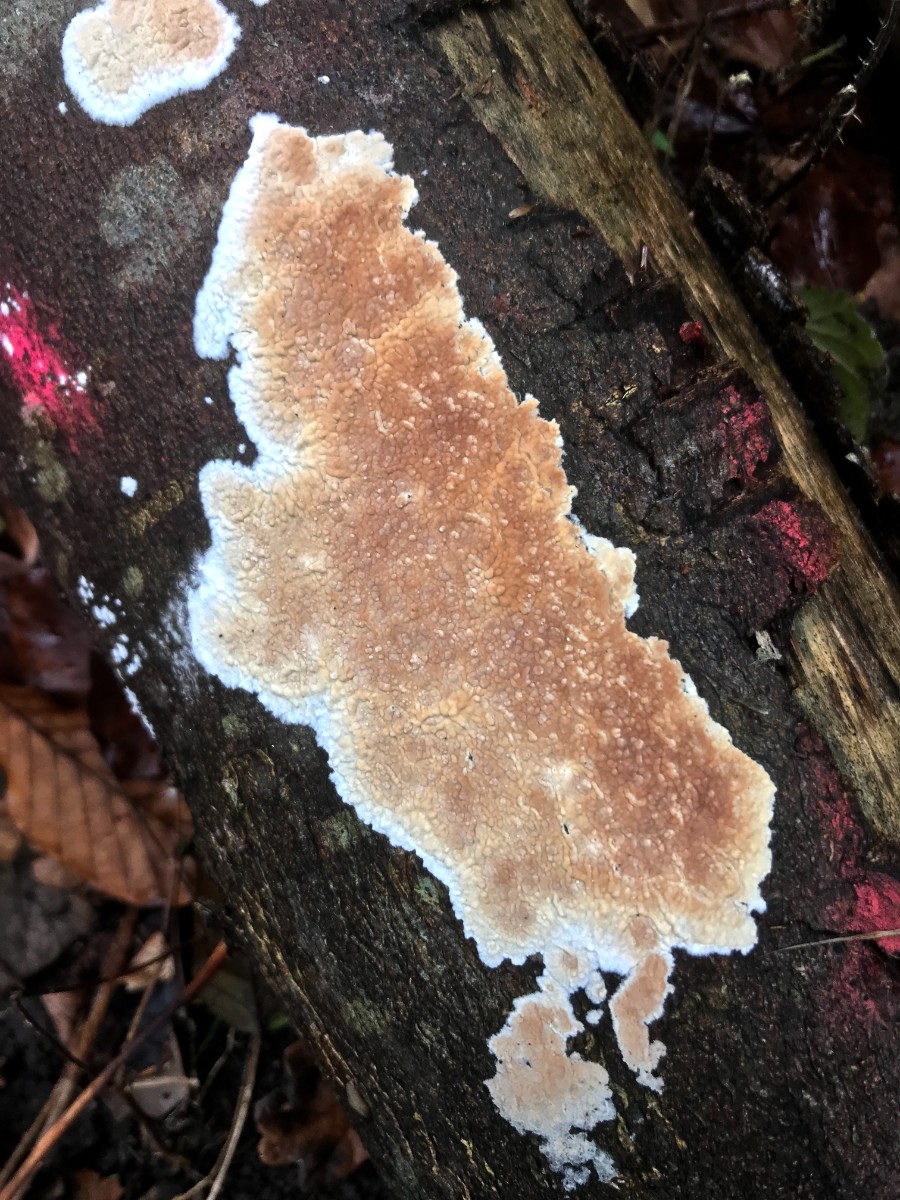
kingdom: Fungi
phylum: Basidiomycota
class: Agaricomycetes
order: Agaricales
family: Physalacriaceae
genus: Cylindrobasidium
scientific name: Cylindrobasidium evolvens
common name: sprækkehinde
